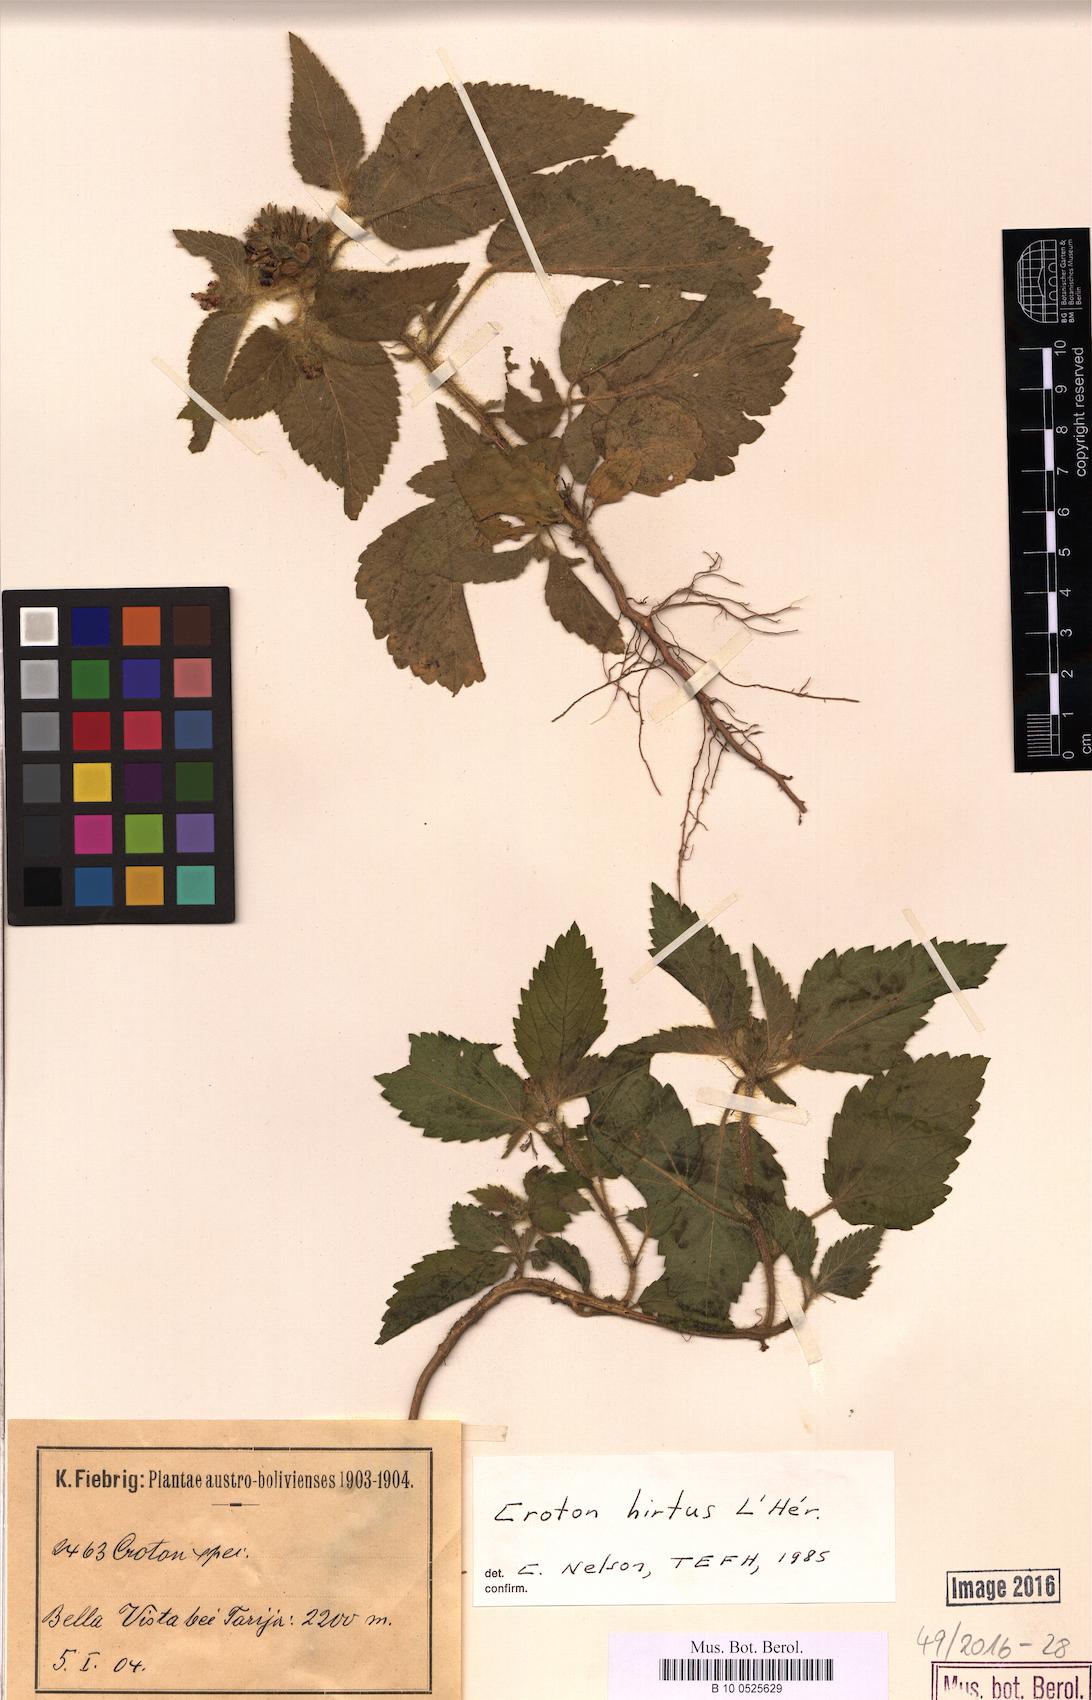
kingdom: Plantae
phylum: Tracheophyta
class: Magnoliopsida
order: Malpighiales
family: Euphorbiaceae
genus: Croton
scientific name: Croton hirtus
